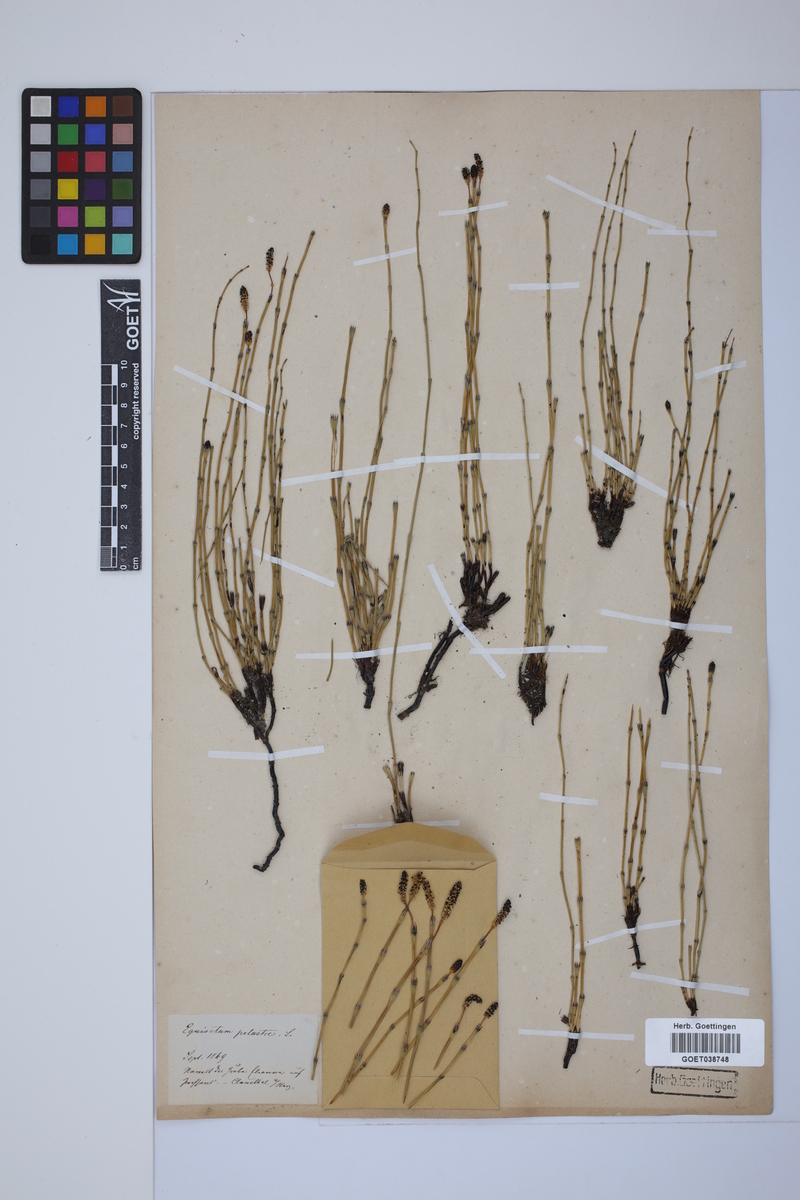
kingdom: Plantae
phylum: Tracheophyta
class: Polypodiopsida
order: Equisetales
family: Equisetaceae
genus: Equisetum
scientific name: Equisetum palustre
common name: Marsh horsetail
